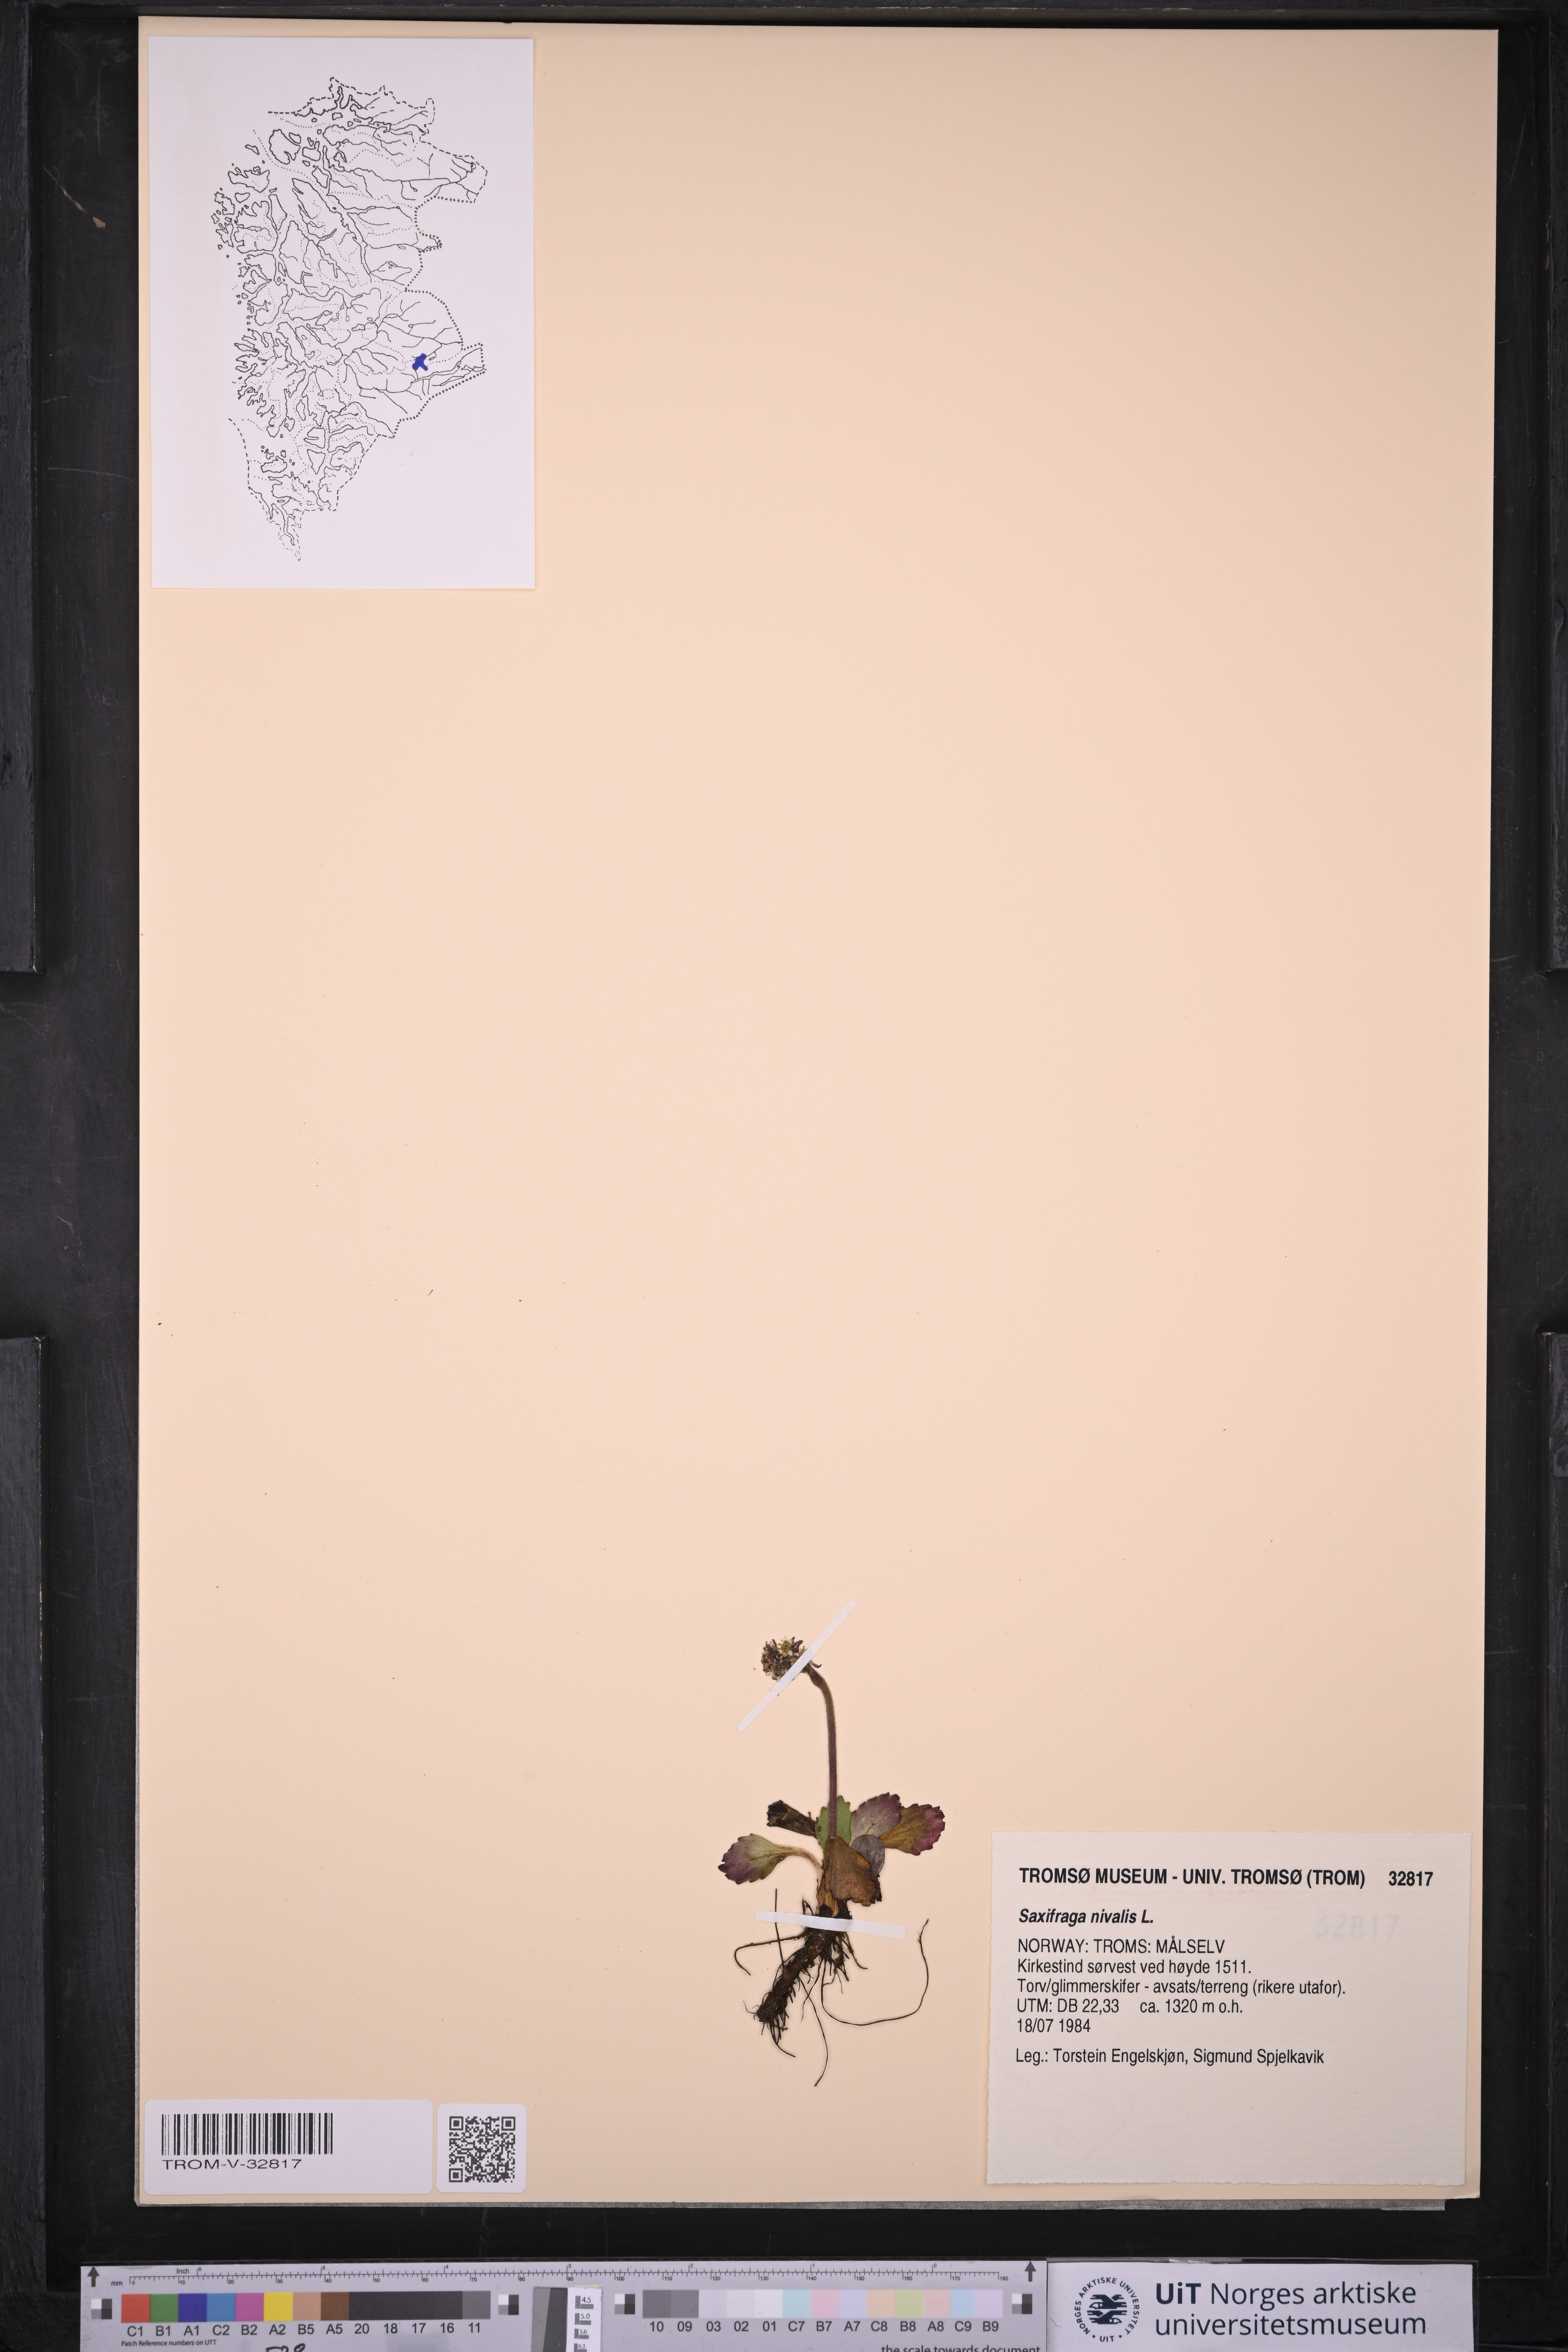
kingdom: Plantae
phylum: Tracheophyta
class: Magnoliopsida
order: Saxifragales
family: Saxifragaceae
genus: Micranthes
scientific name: Micranthes nivalis
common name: Alpine saxifrage
